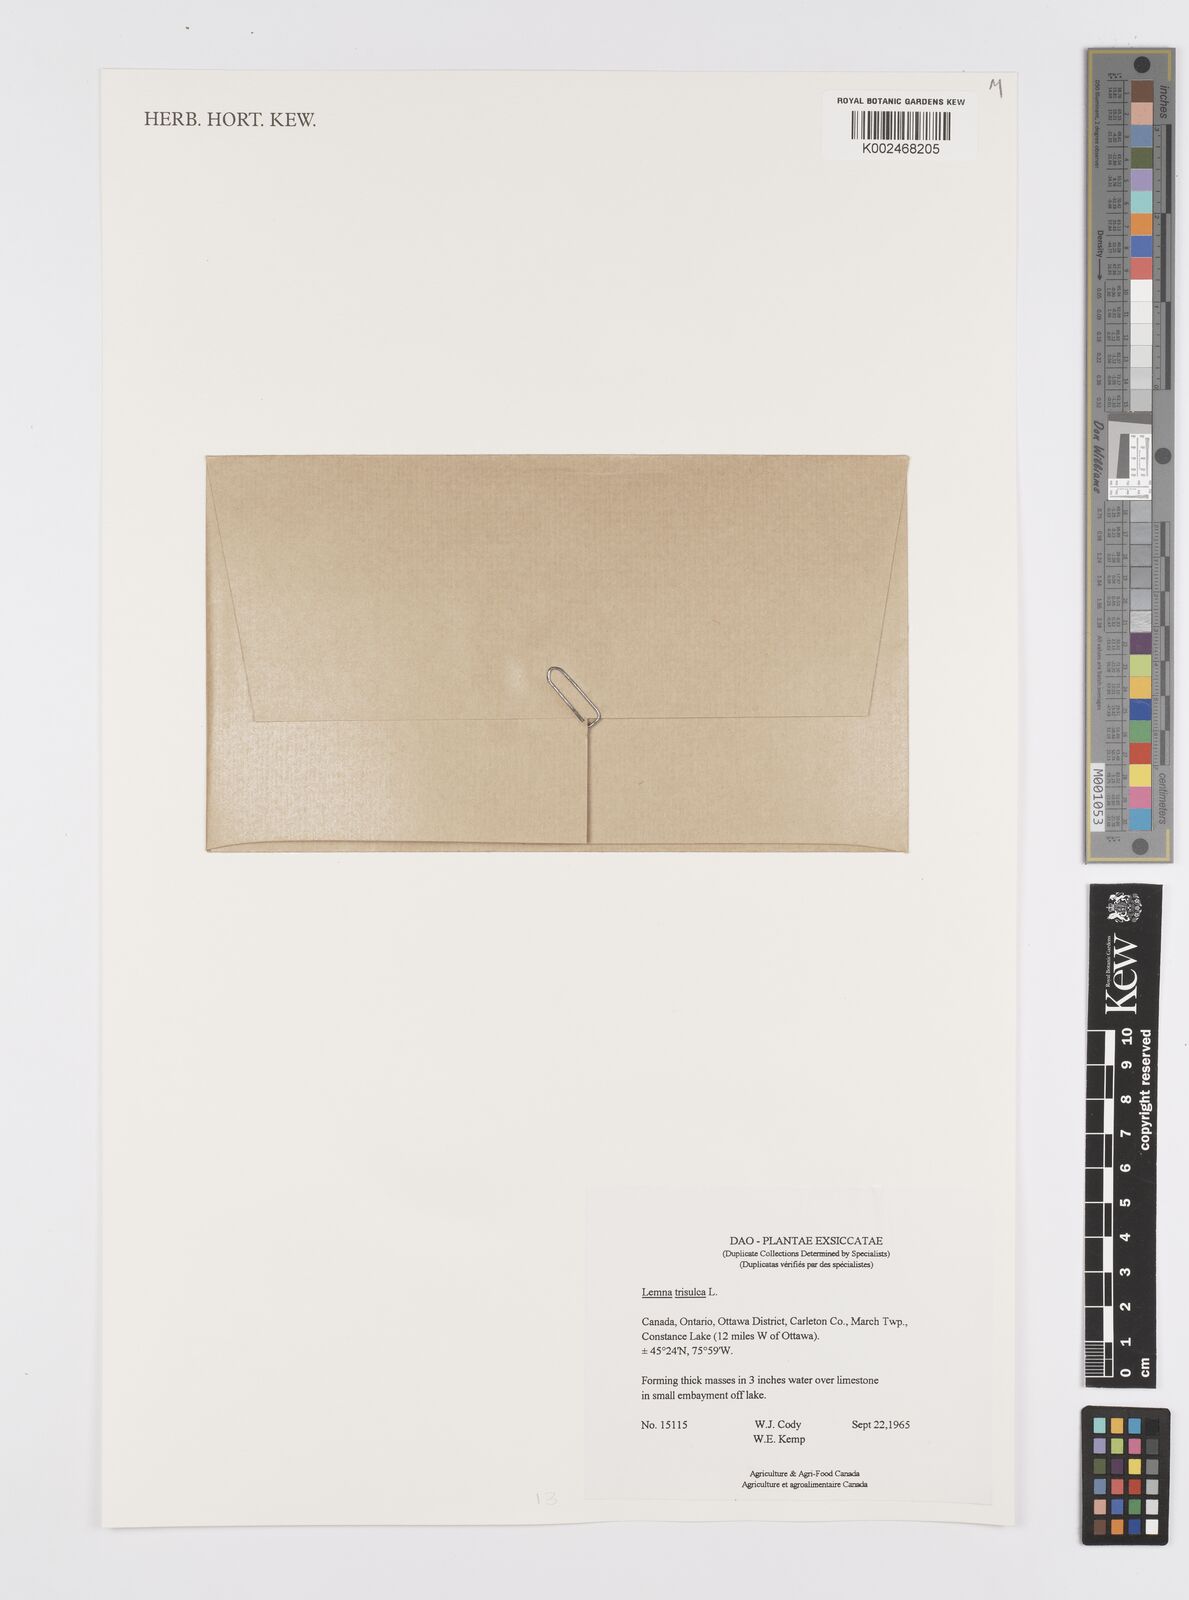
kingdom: Plantae
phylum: Tracheophyta
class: Liliopsida
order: Alismatales
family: Araceae
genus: Lemna
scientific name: Lemna trisulca
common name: Ivy-leaved duckweed
